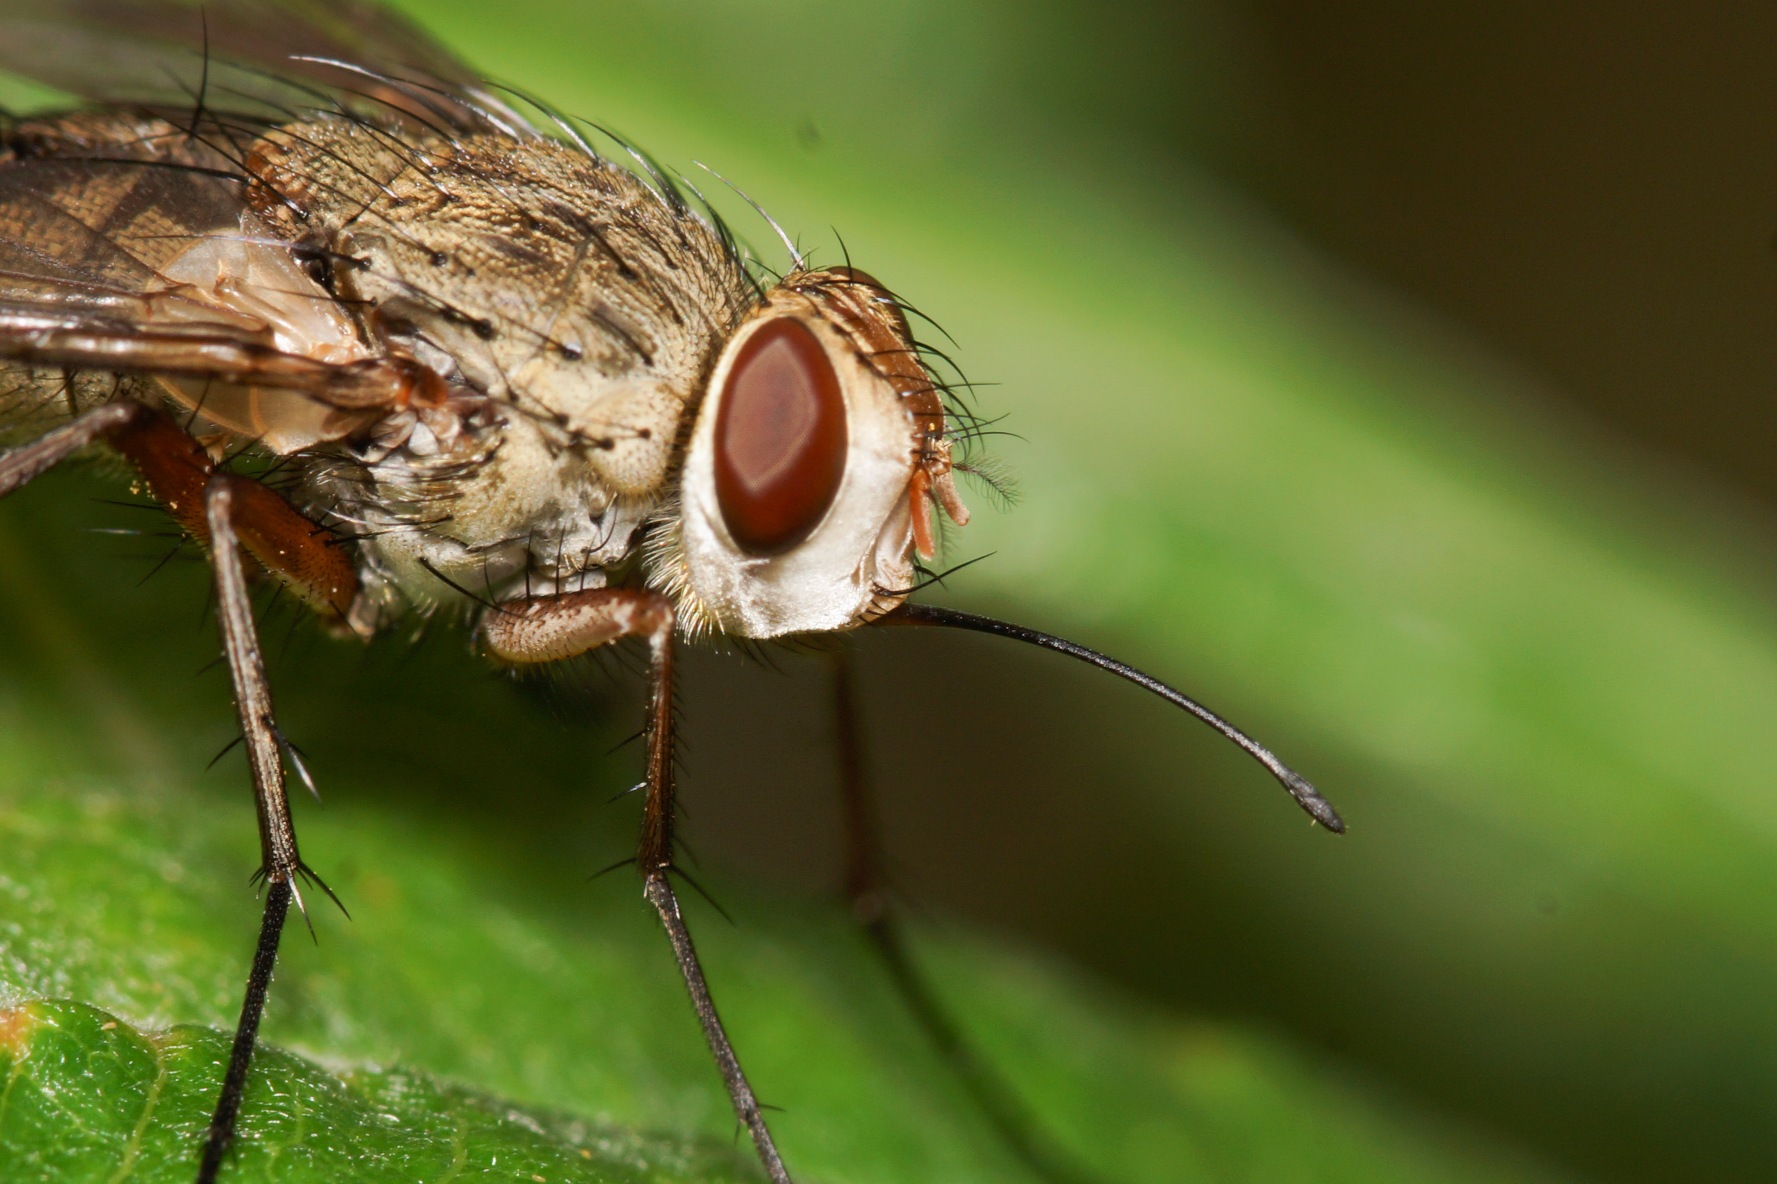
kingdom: Animalia
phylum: Arthropoda
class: Insecta
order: Diptera
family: Tachinidae
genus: Prosena
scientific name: Prosena siberita
